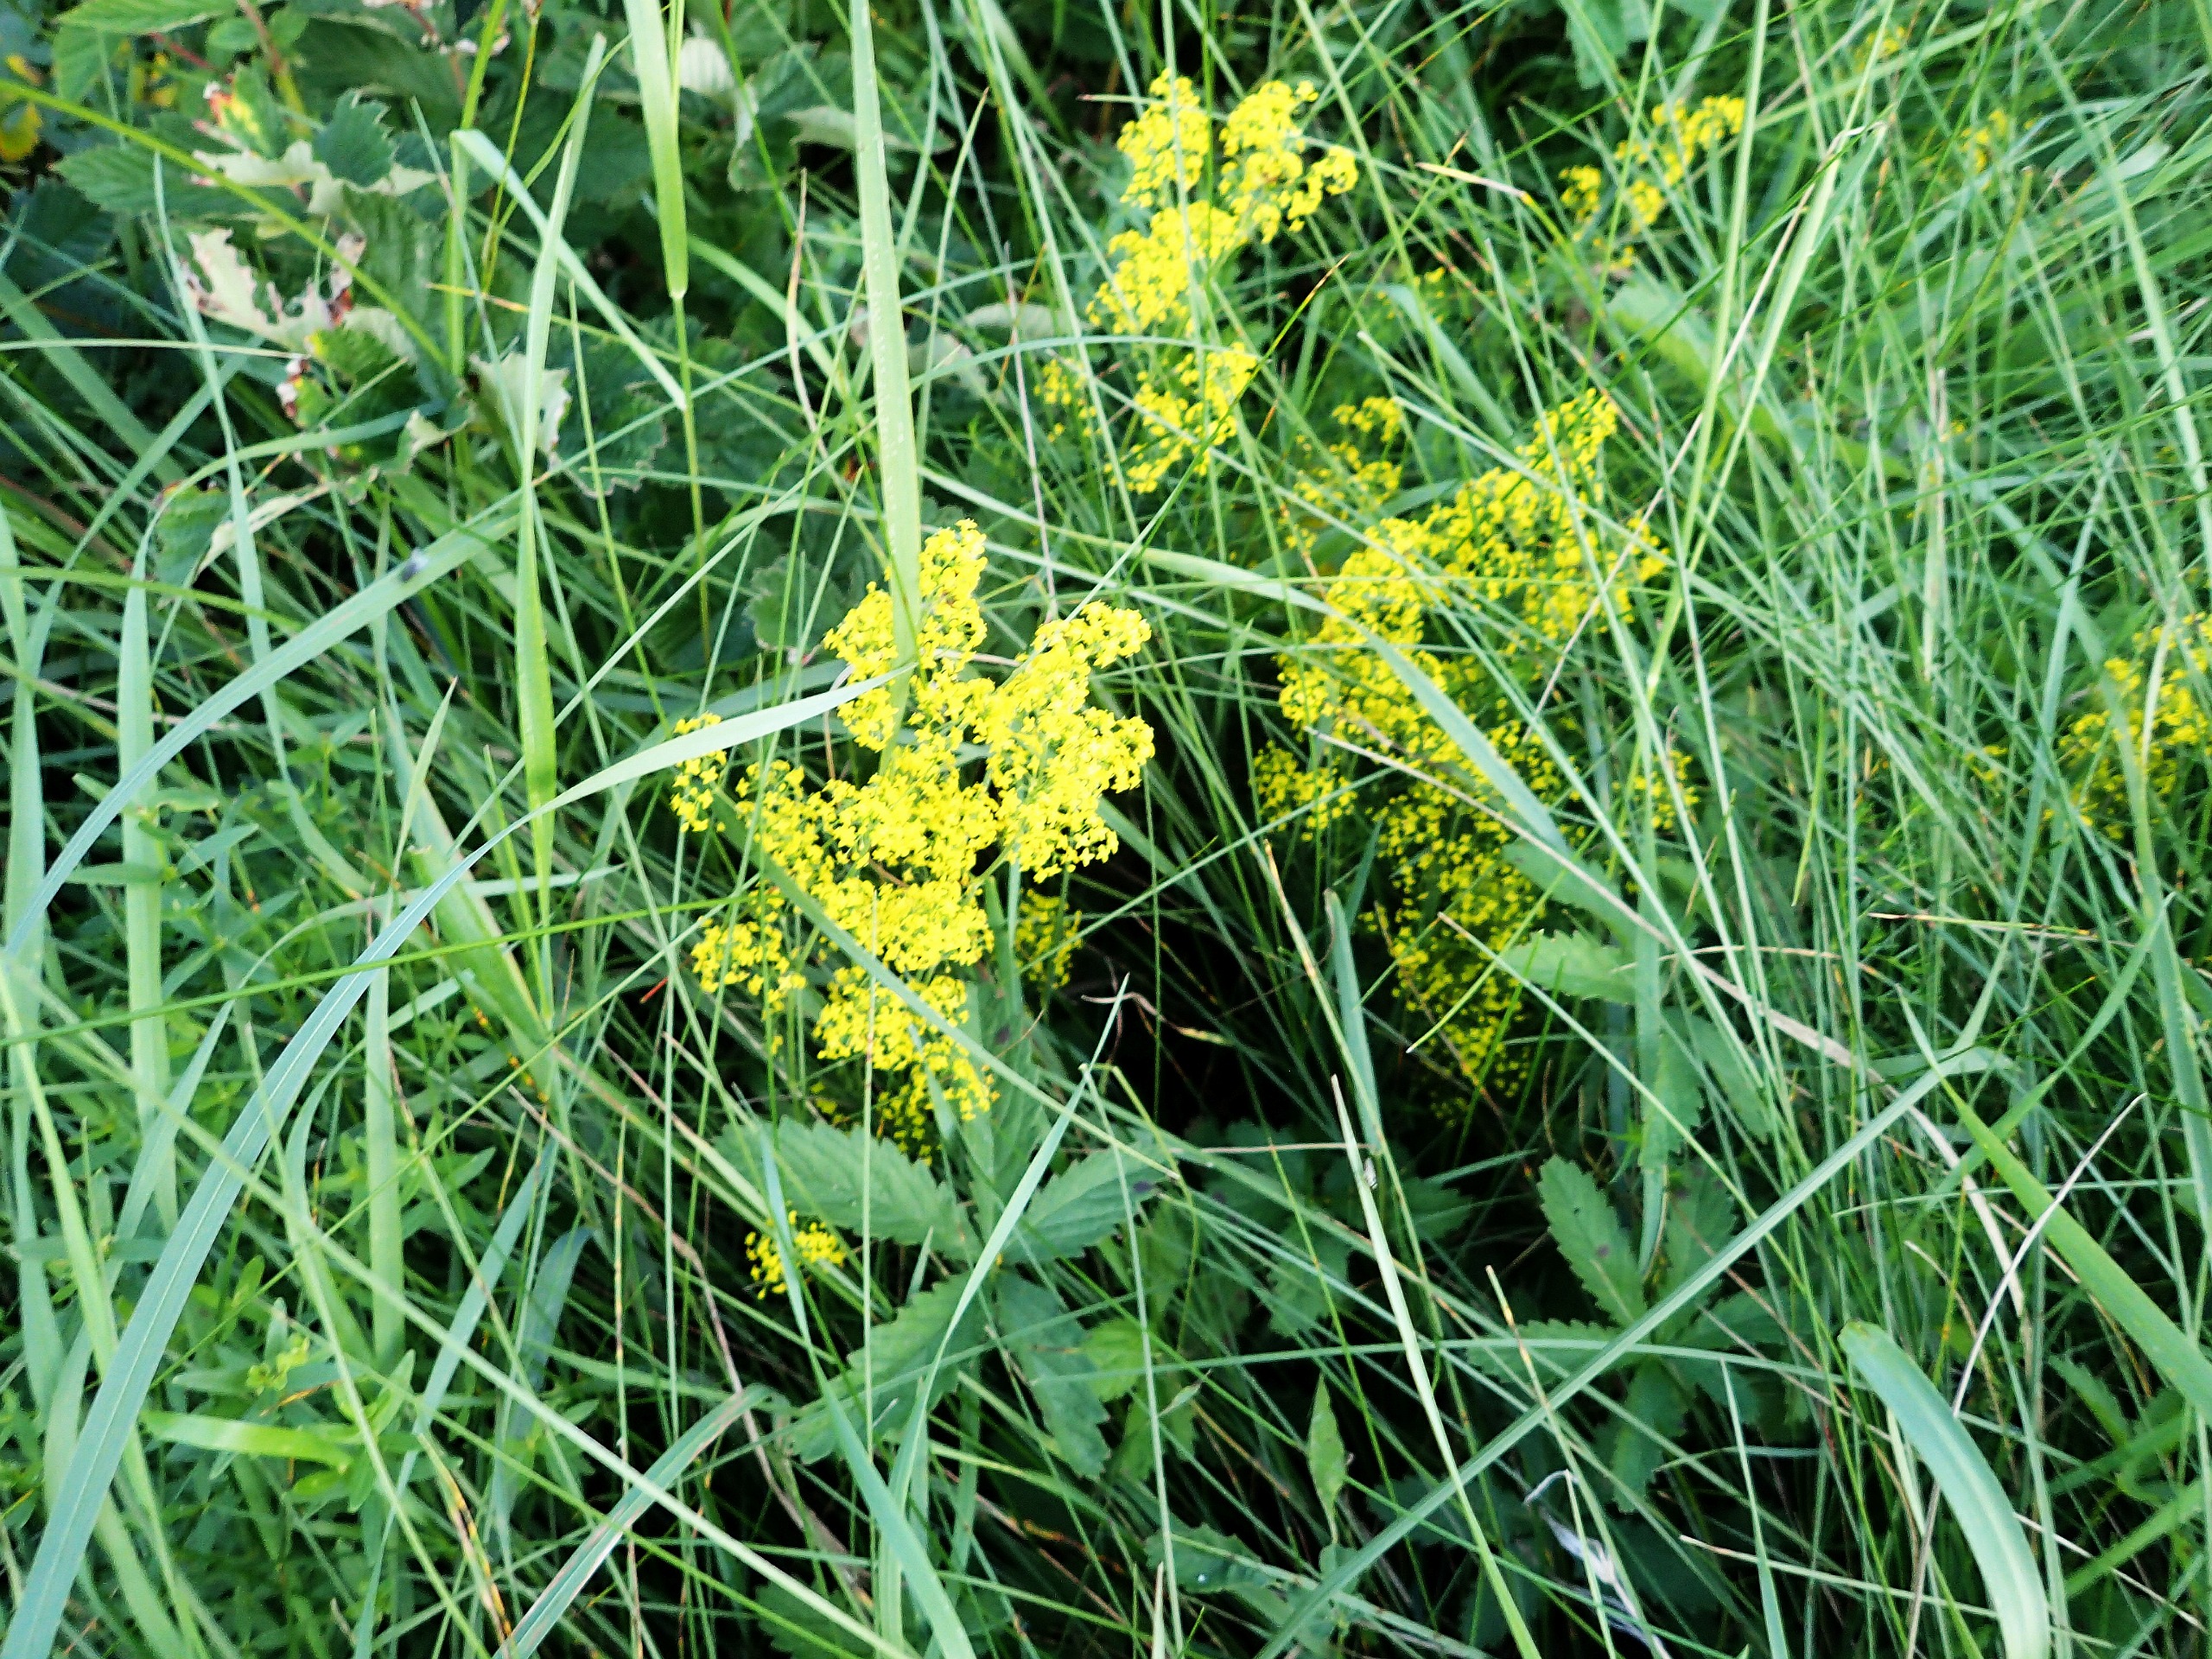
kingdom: Plantae
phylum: Tracheophyta
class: Magnoliopsida
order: Gentianales
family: Rubiaceae
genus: Galium
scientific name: Galium verum
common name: Gul snerre
